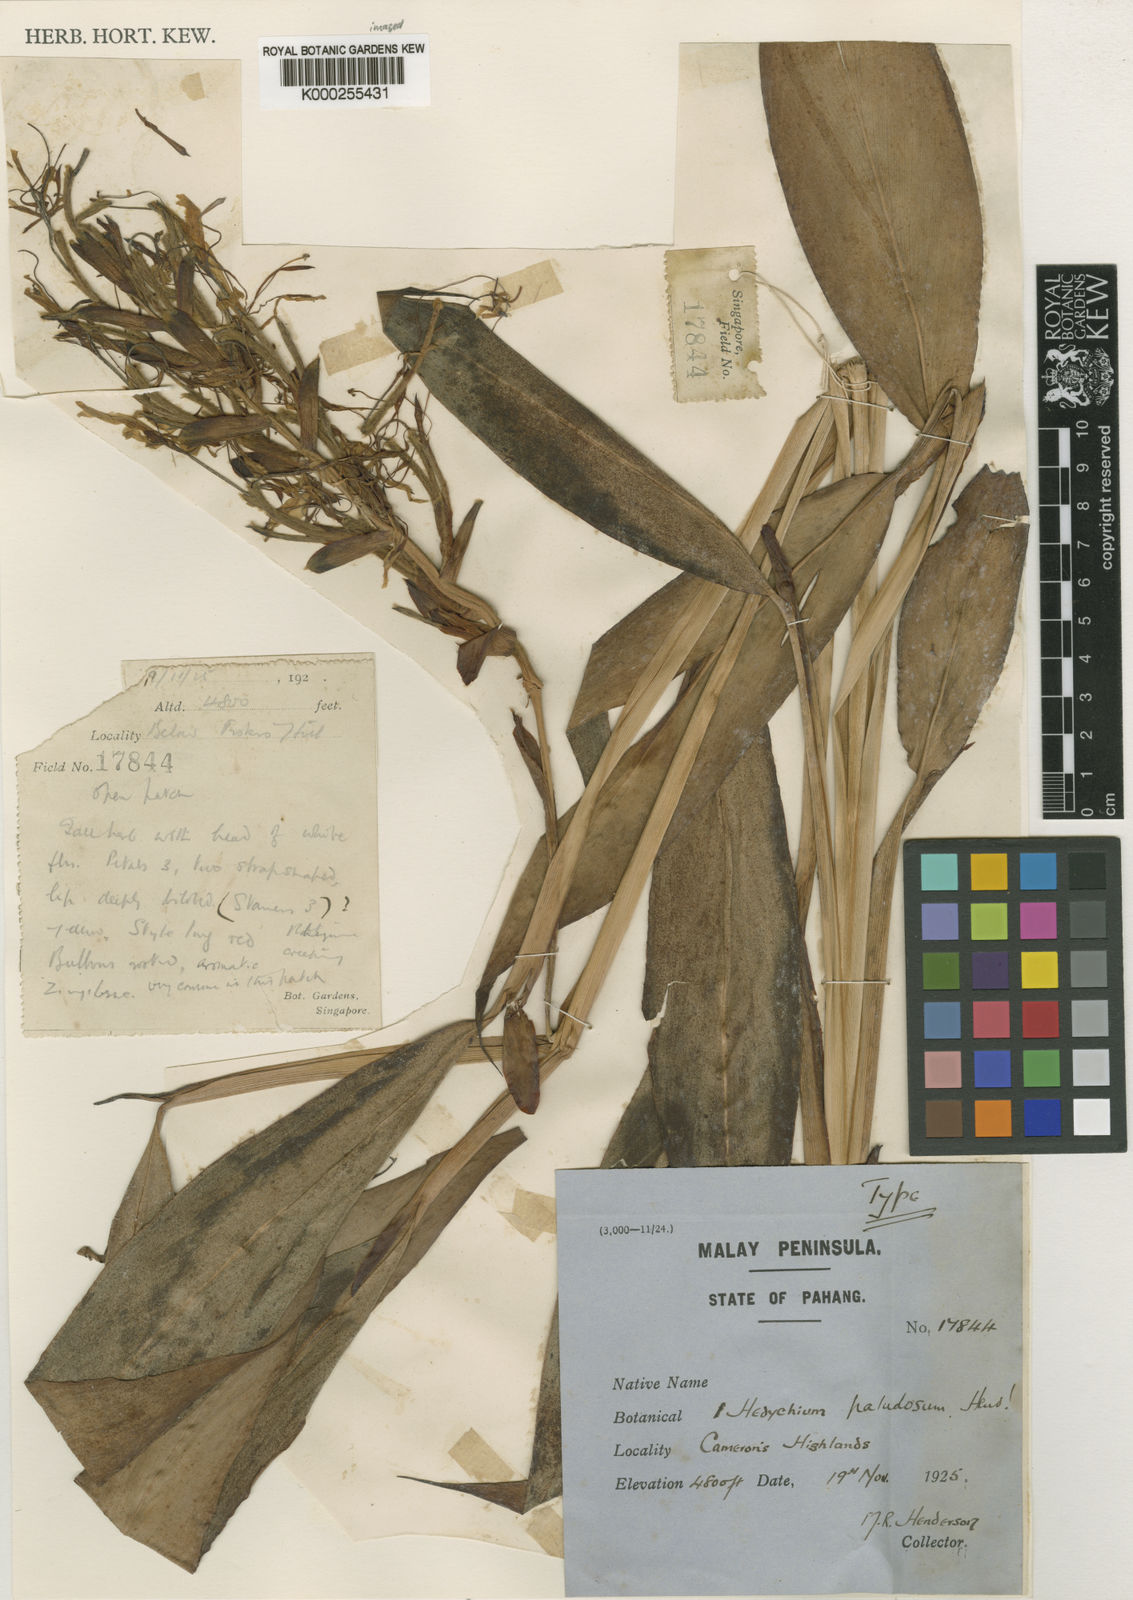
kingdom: Plantae
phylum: Tracheophyta
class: Liliopsida
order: Zingiberales
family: Zingiberaceae
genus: Hedychium
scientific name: Hedychium paludosum
